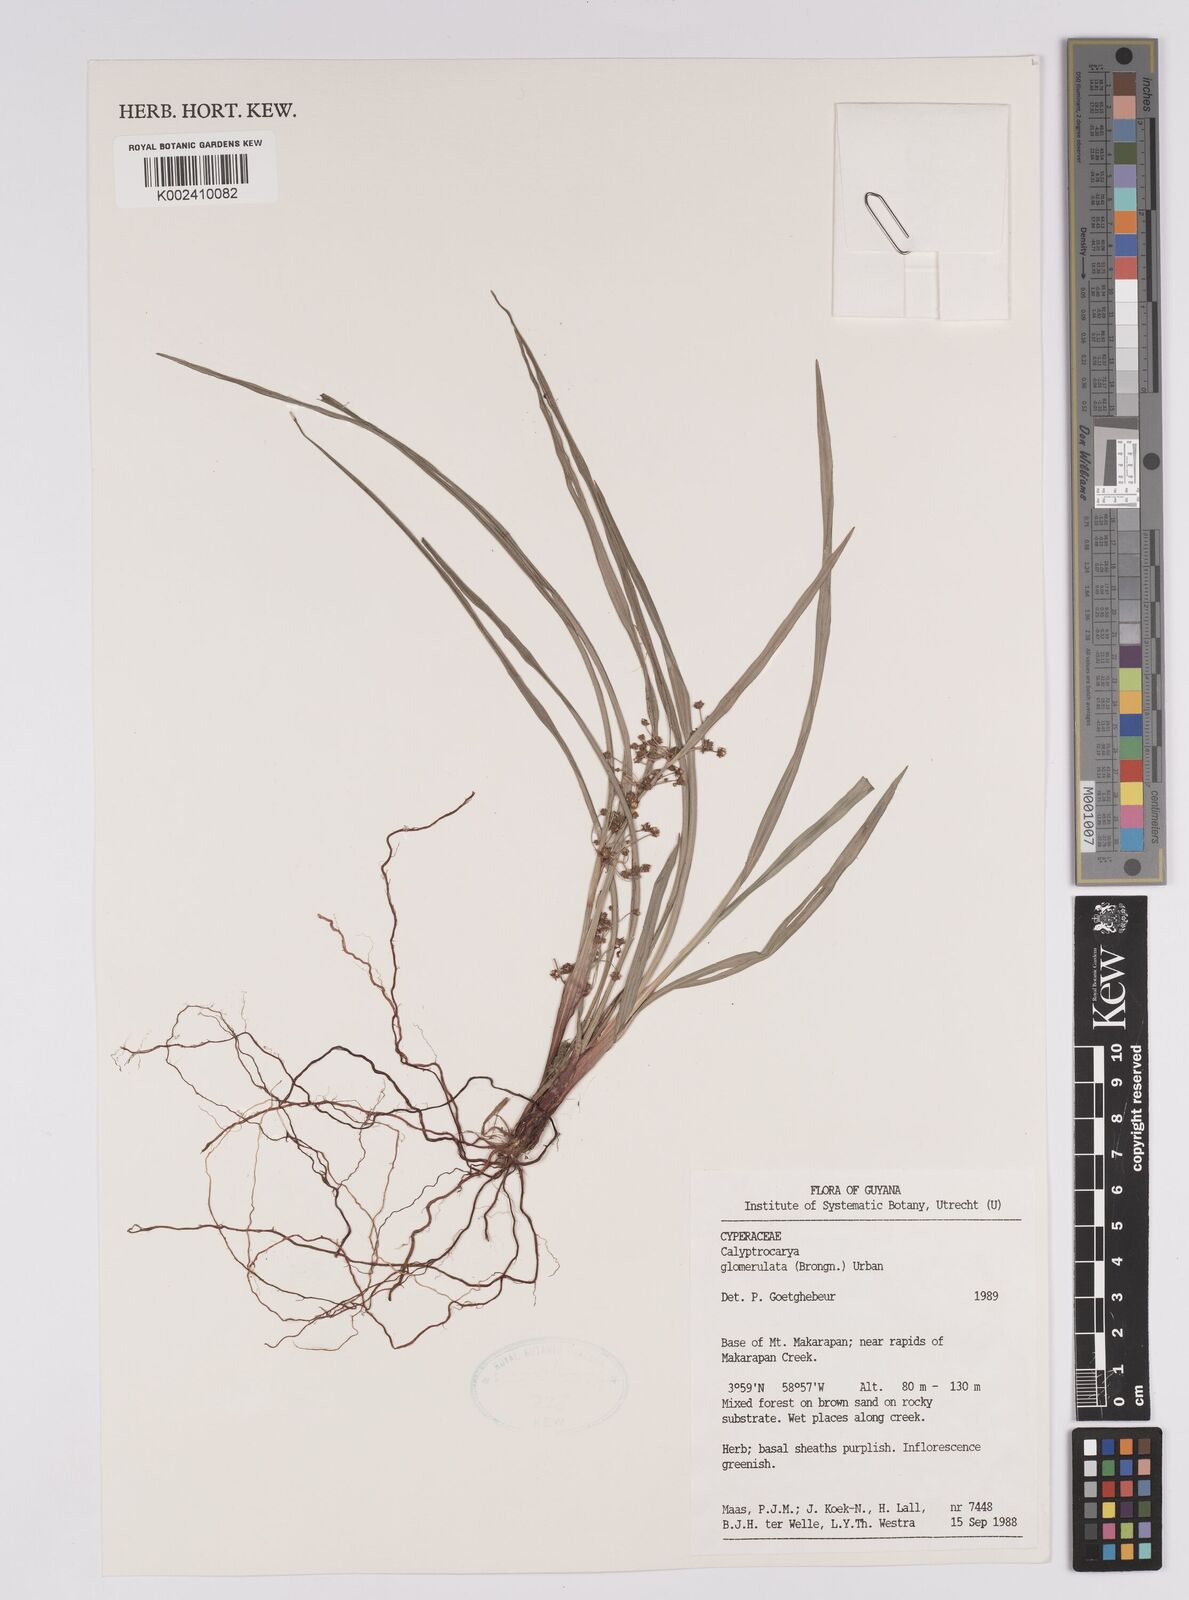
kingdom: Plantae
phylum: Tracheophyta
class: Liliopsida
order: Poales
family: Cyperaceae
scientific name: Cyperaceae
